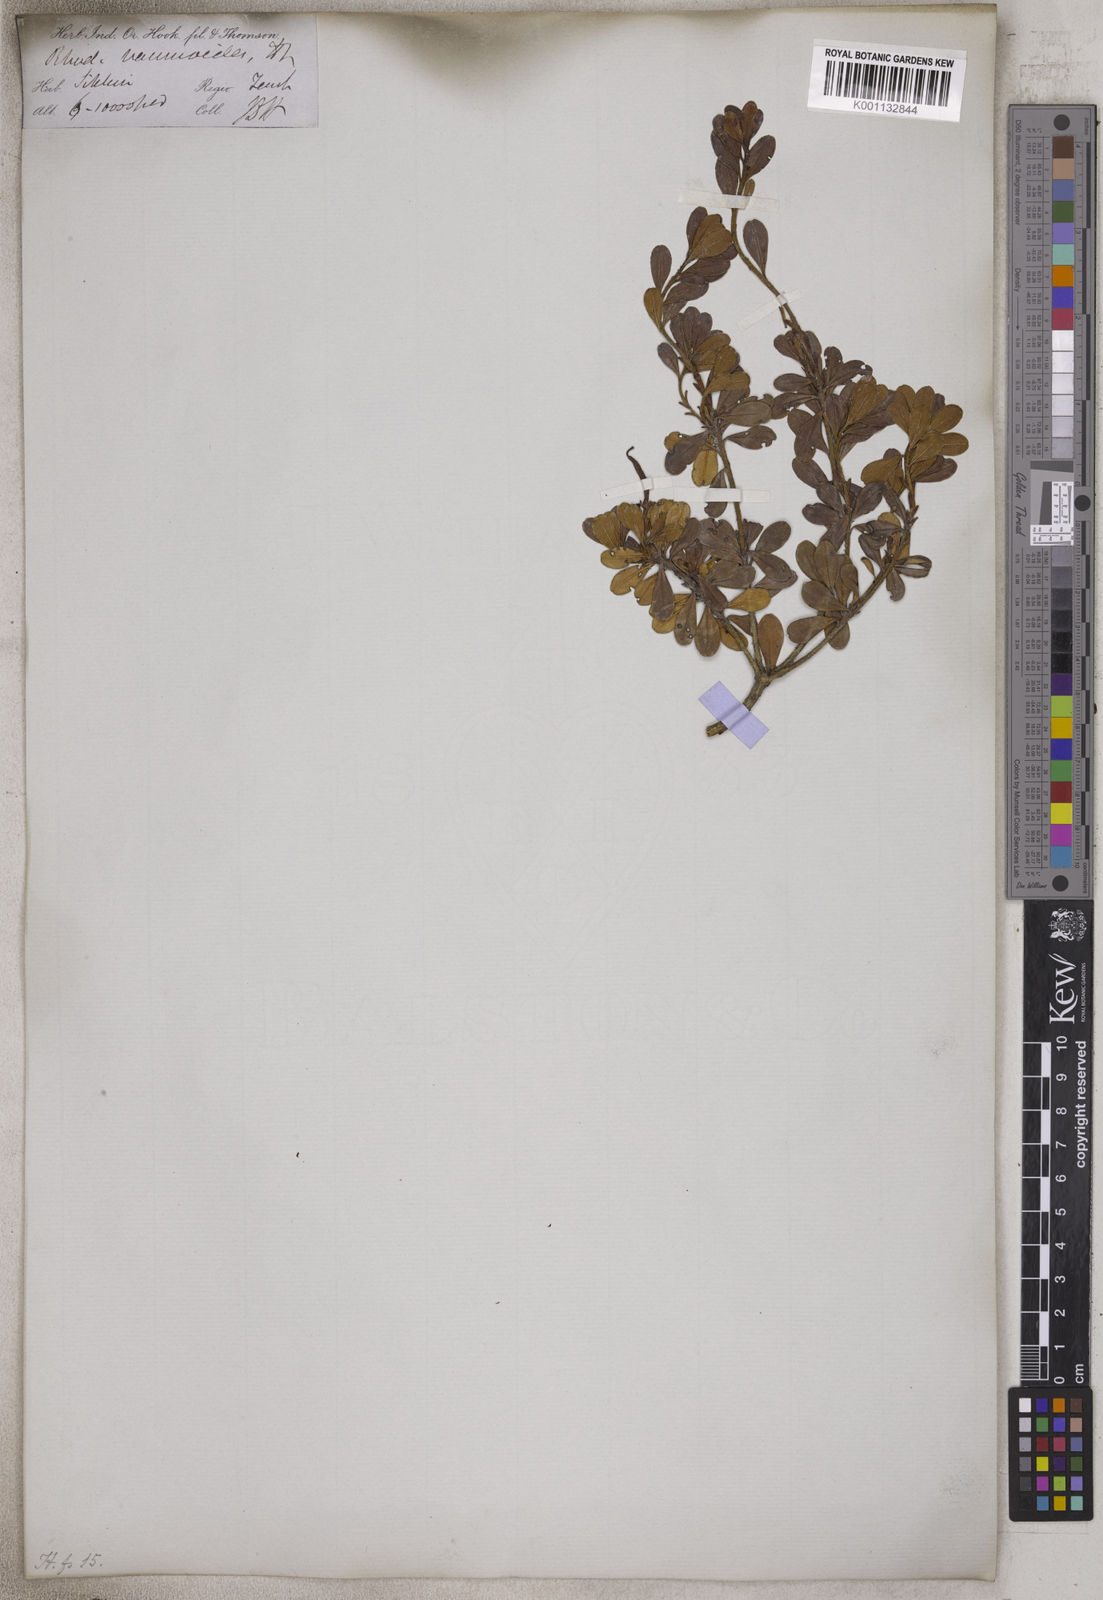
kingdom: Plantae
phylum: Tracheophyta
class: Magnoliopsida
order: Ericales
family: Ericaceae
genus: Rhododendron
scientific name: Rhododendron vaccinioides
